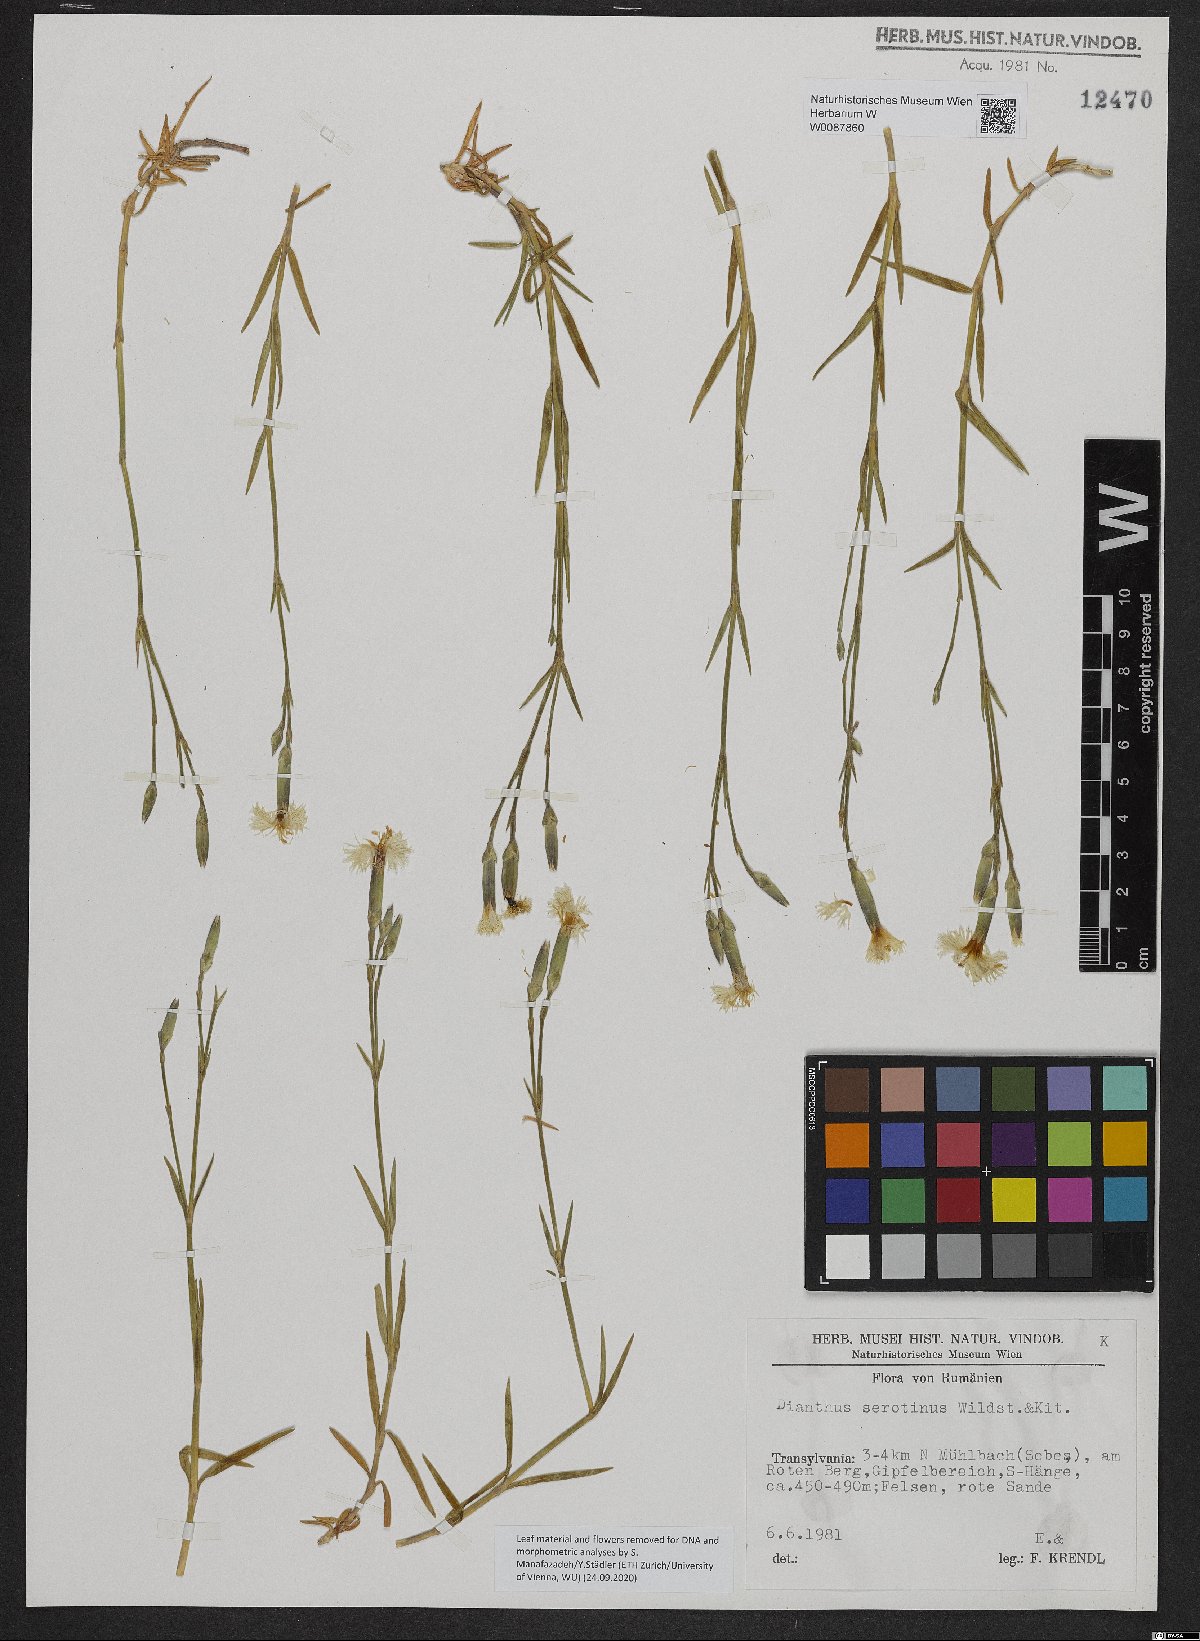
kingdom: Plantae
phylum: Tracheophyta
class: Magnoliopsida
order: Caryophyllales
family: Caryophyllaceae
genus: Dianthus
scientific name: Dianthus serotinus
